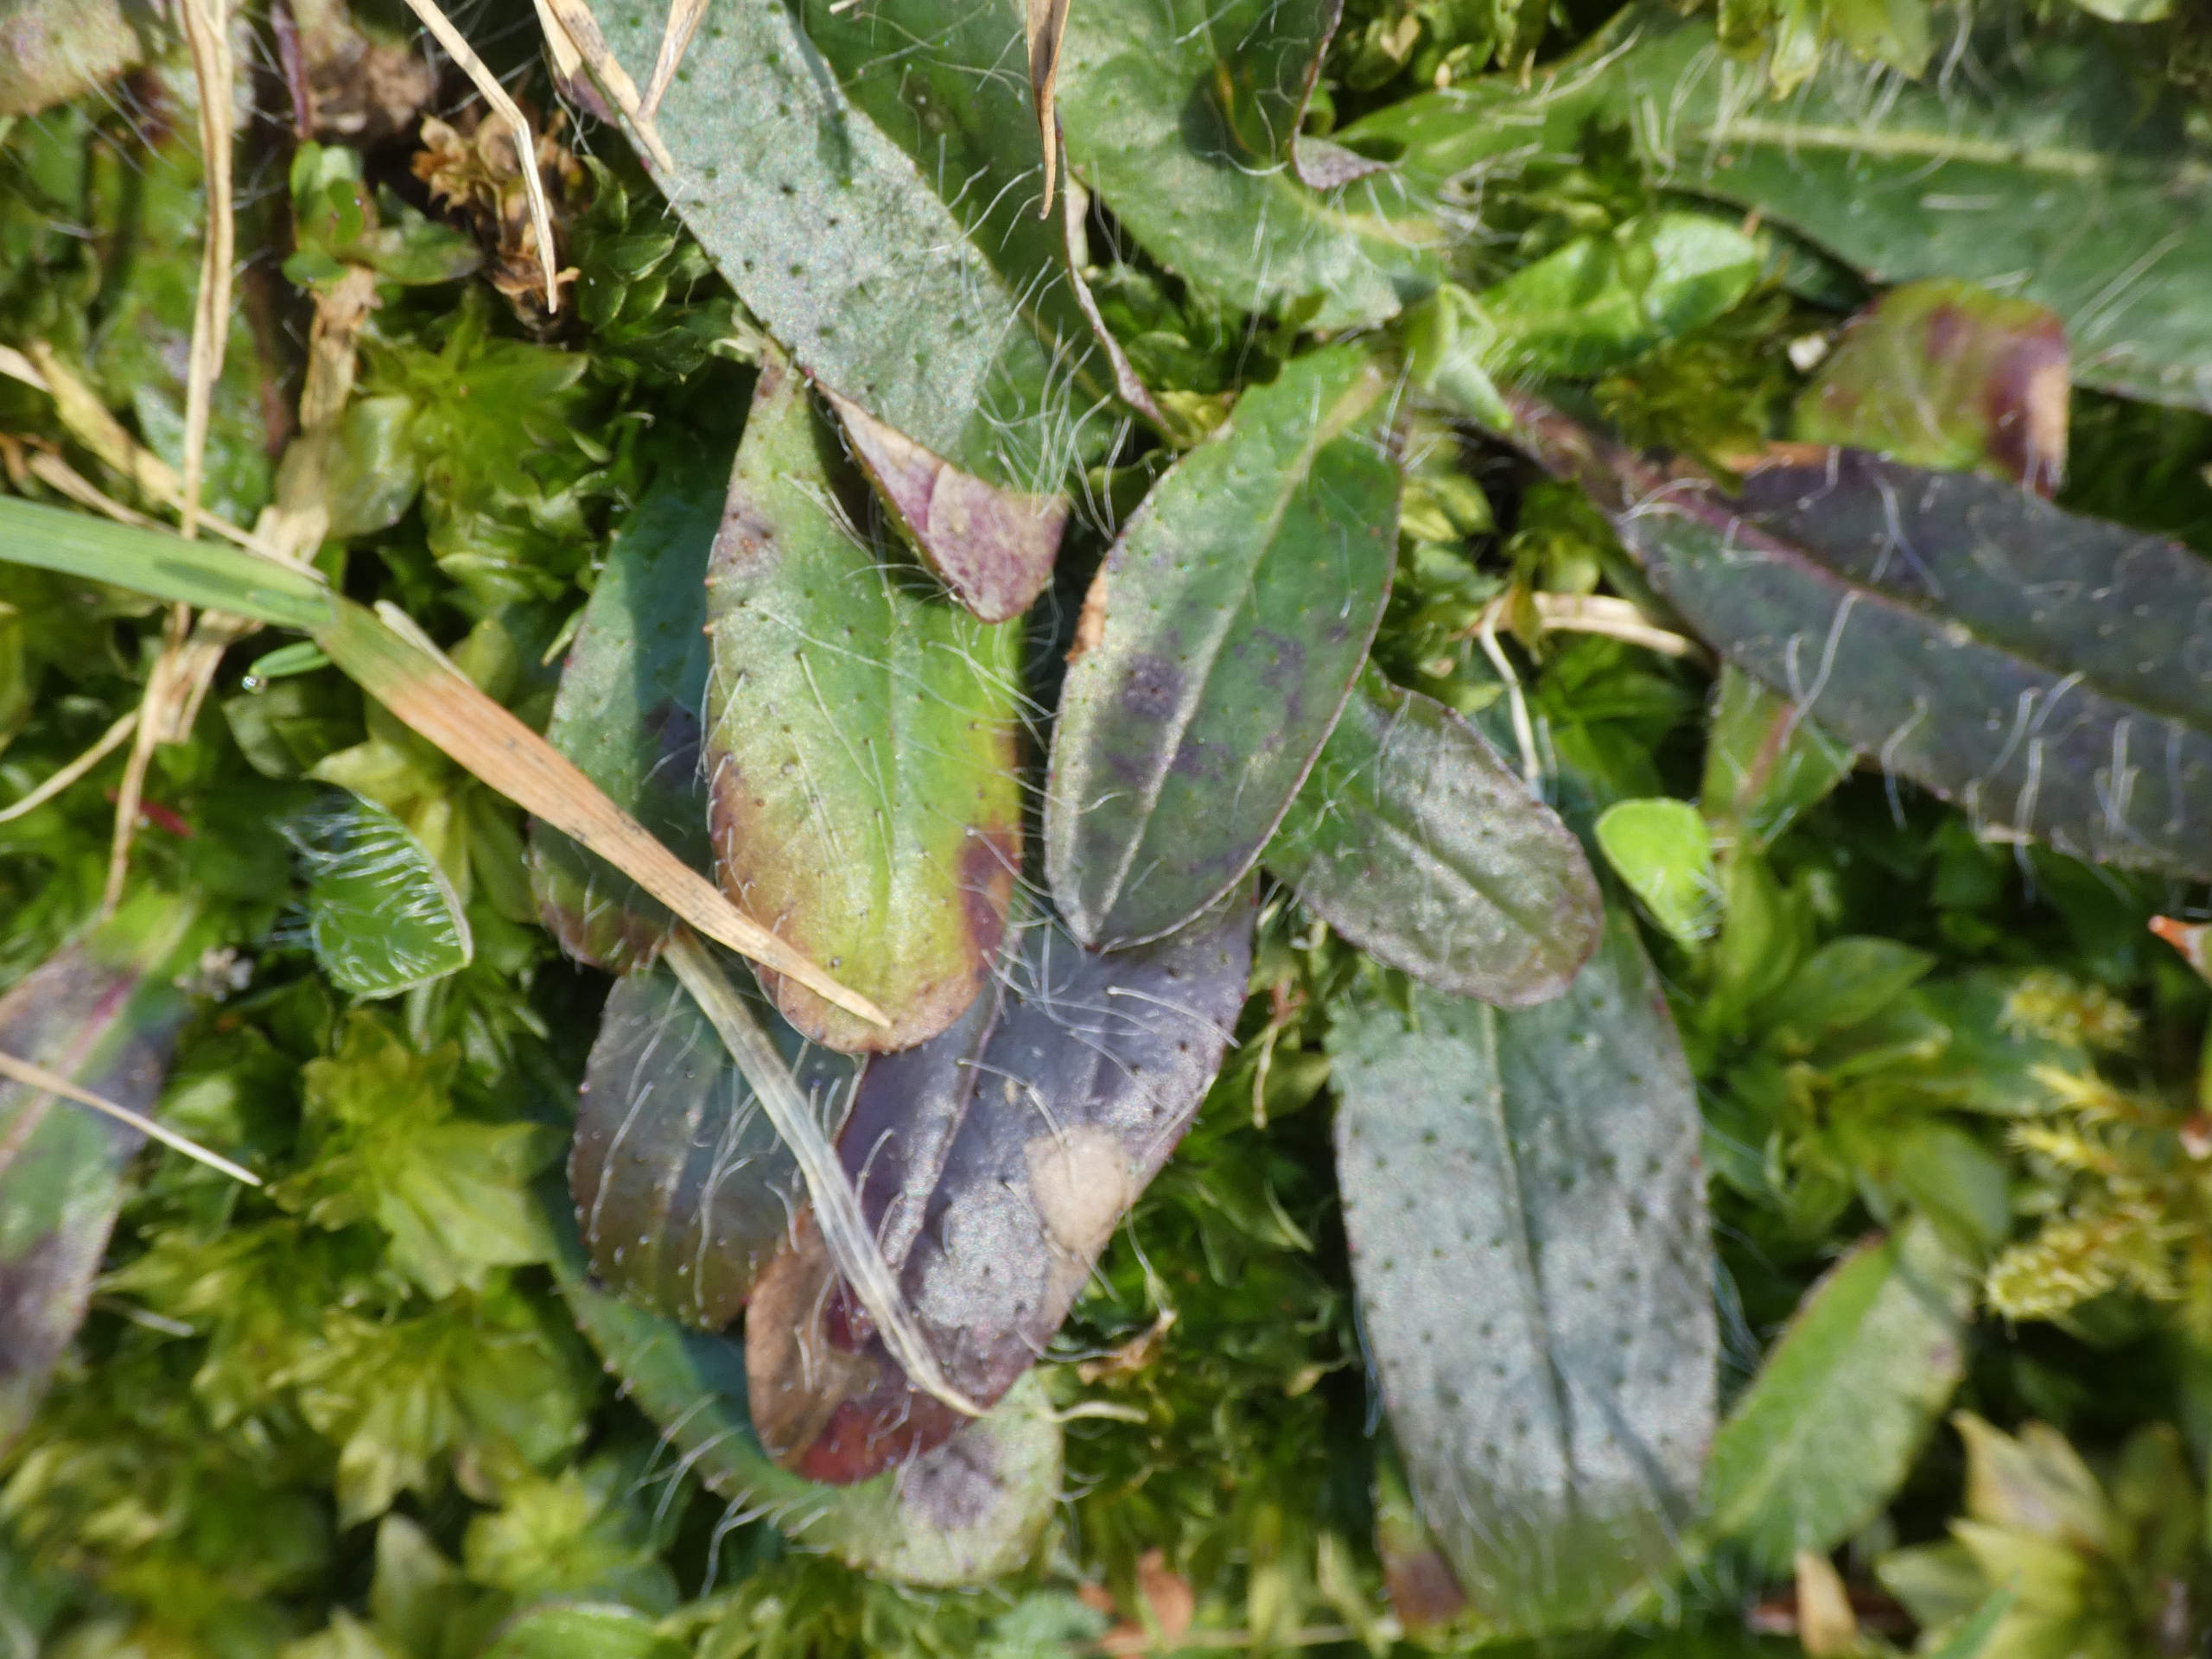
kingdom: Plantae
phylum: Tracheophyta
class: Magnoliopsida
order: Asterales
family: Asteraceae
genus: Pilosella
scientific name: Pilosella officinarum
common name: Håret høgeurt
